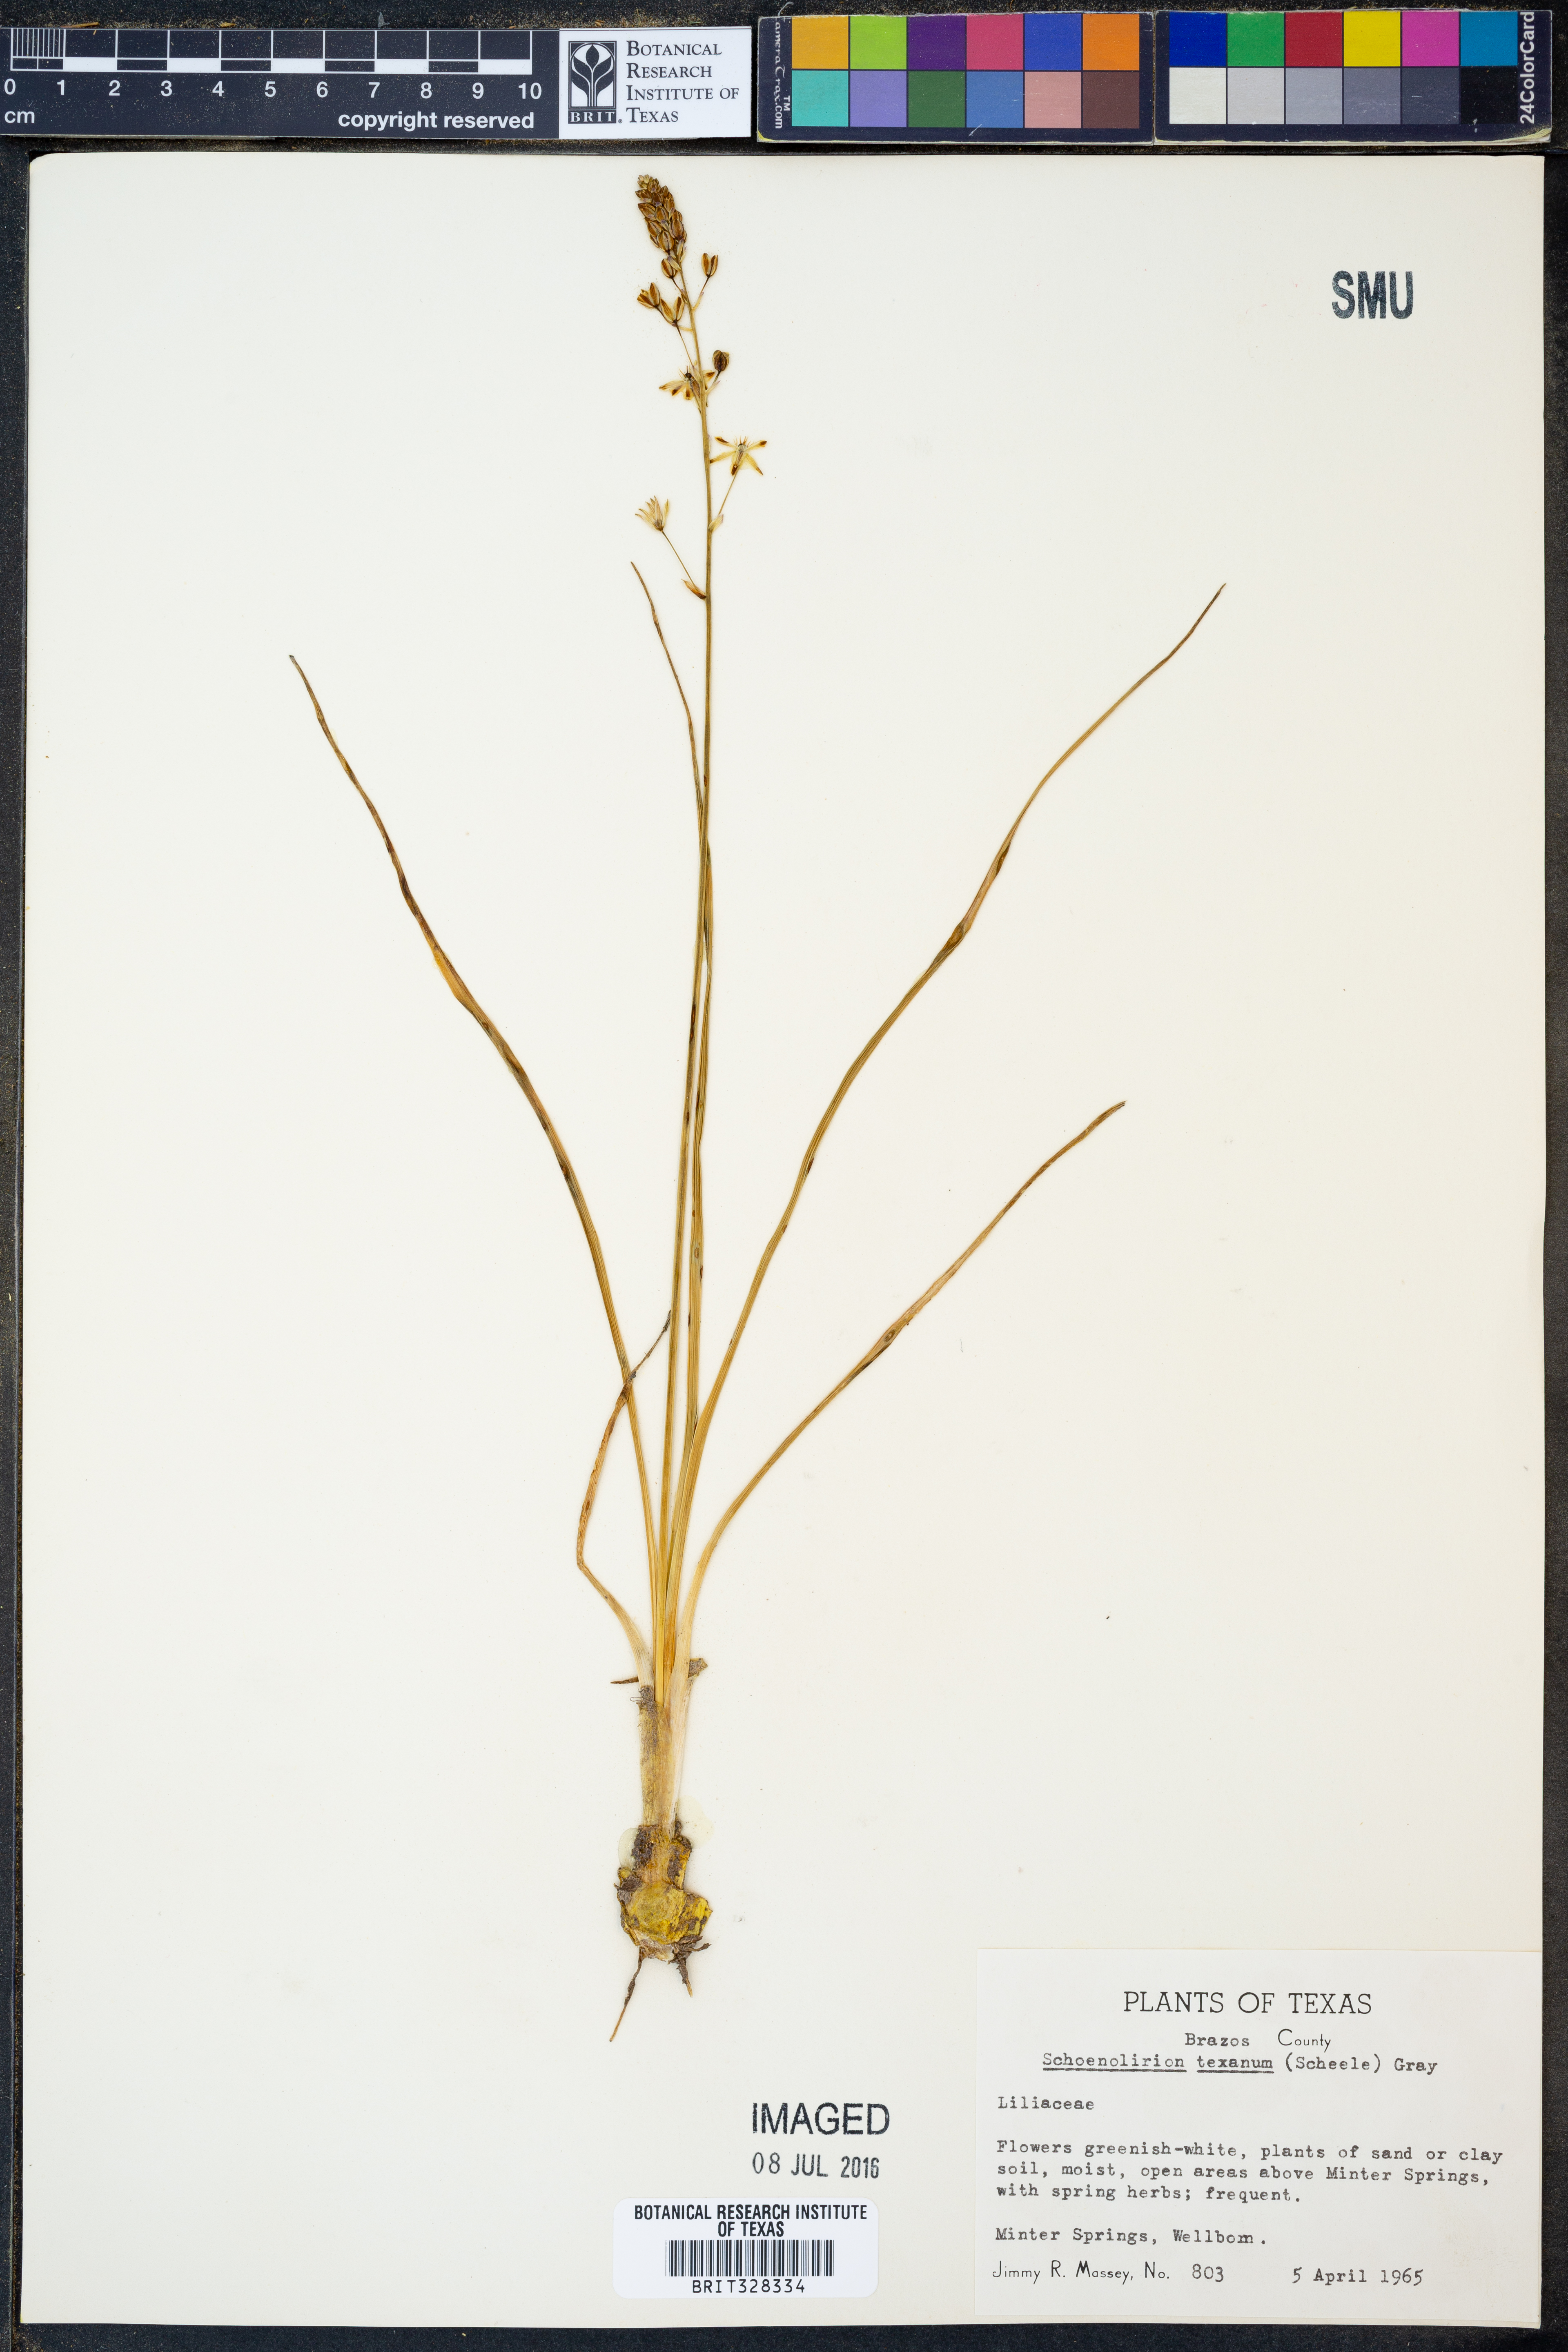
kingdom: Plantae
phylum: Tracheophyta
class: Liliopsida
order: Asparagales
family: Asparagaceae
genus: Camassia
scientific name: Camassia scilloides
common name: Wild hyacinth
